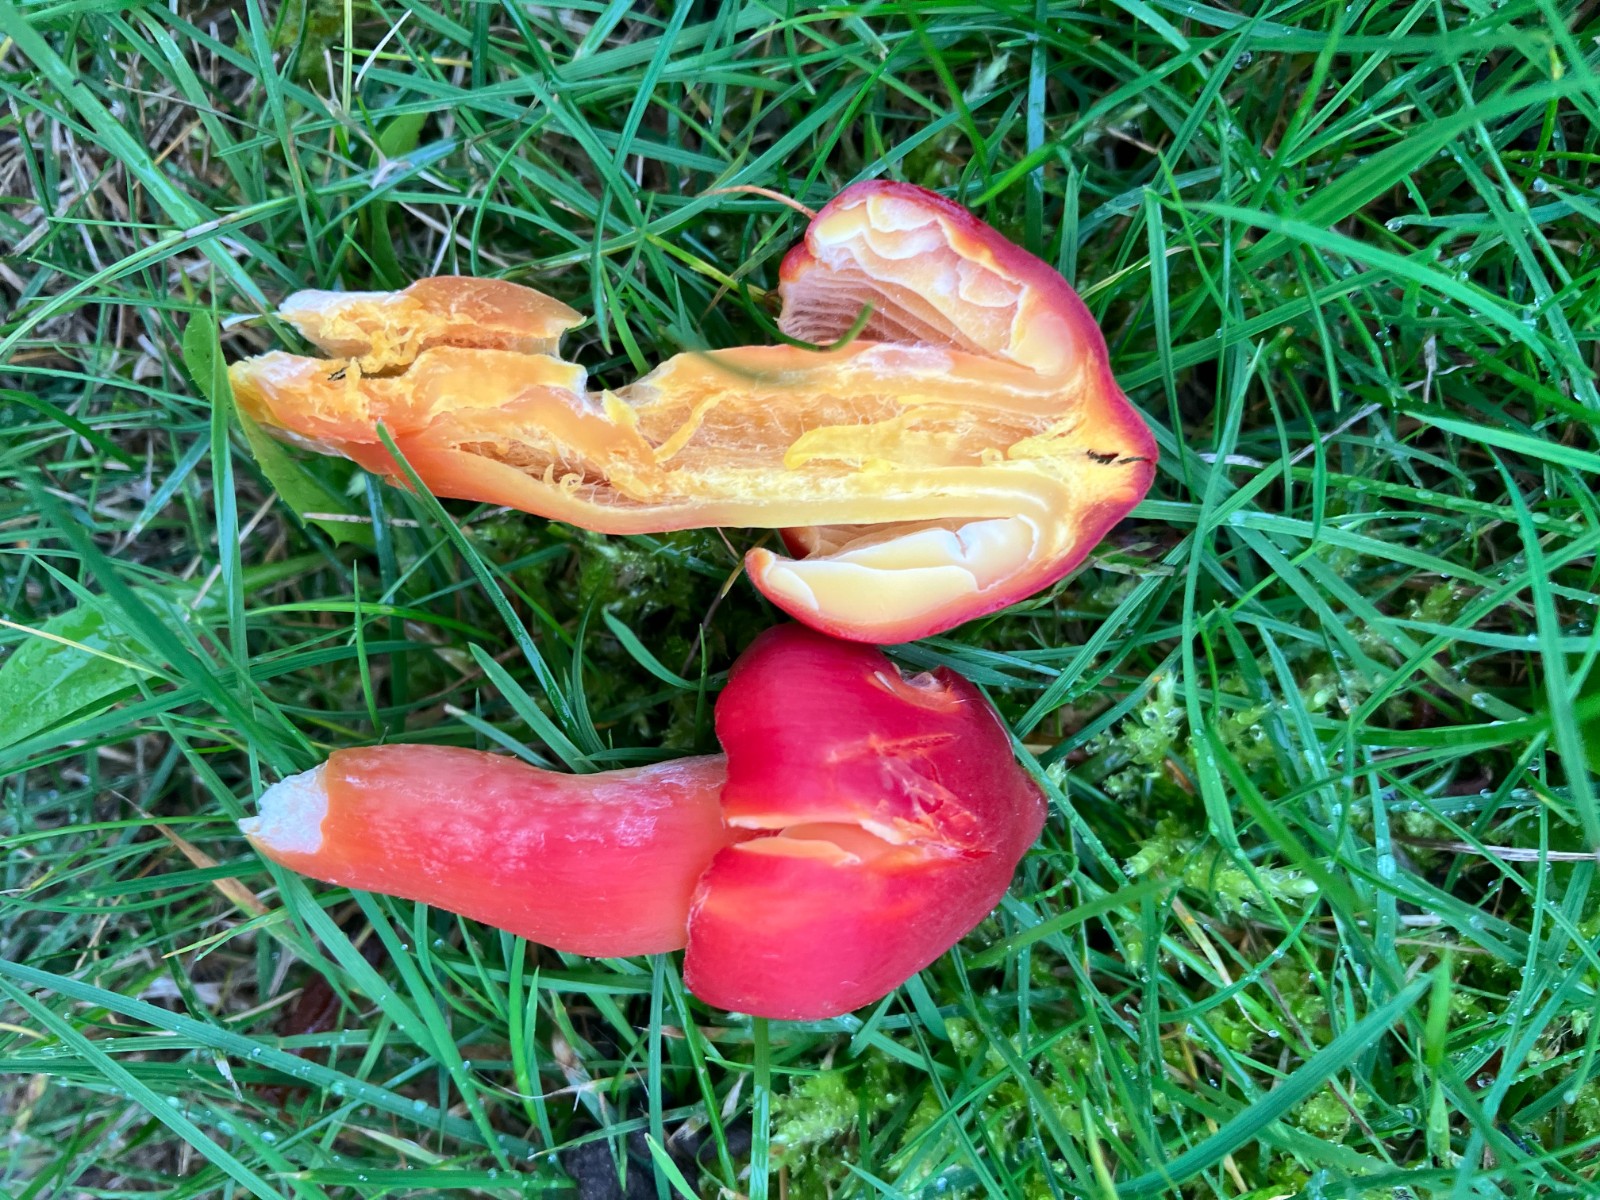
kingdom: Fungi
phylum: Basidiomycota
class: Agaricomycetes
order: Agaricales
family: Hygrophoraceae
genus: Hygrocybe
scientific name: Hygrocybe splendidissima
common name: knaldrød vokshat
